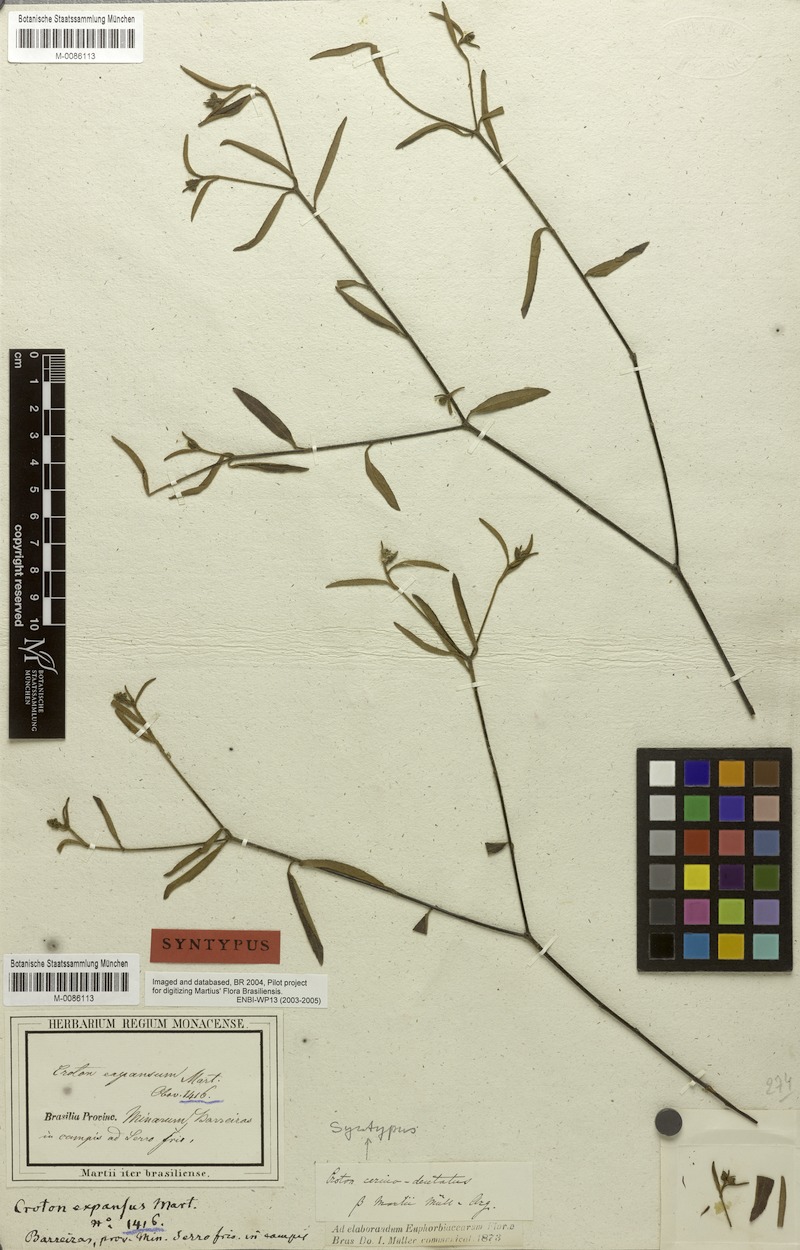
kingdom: Plantae
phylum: Tracheophyta
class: Magnoliopsida
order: Malpighiales
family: Euphorbiaceae
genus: Croton
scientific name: Croton cerinodentatus
